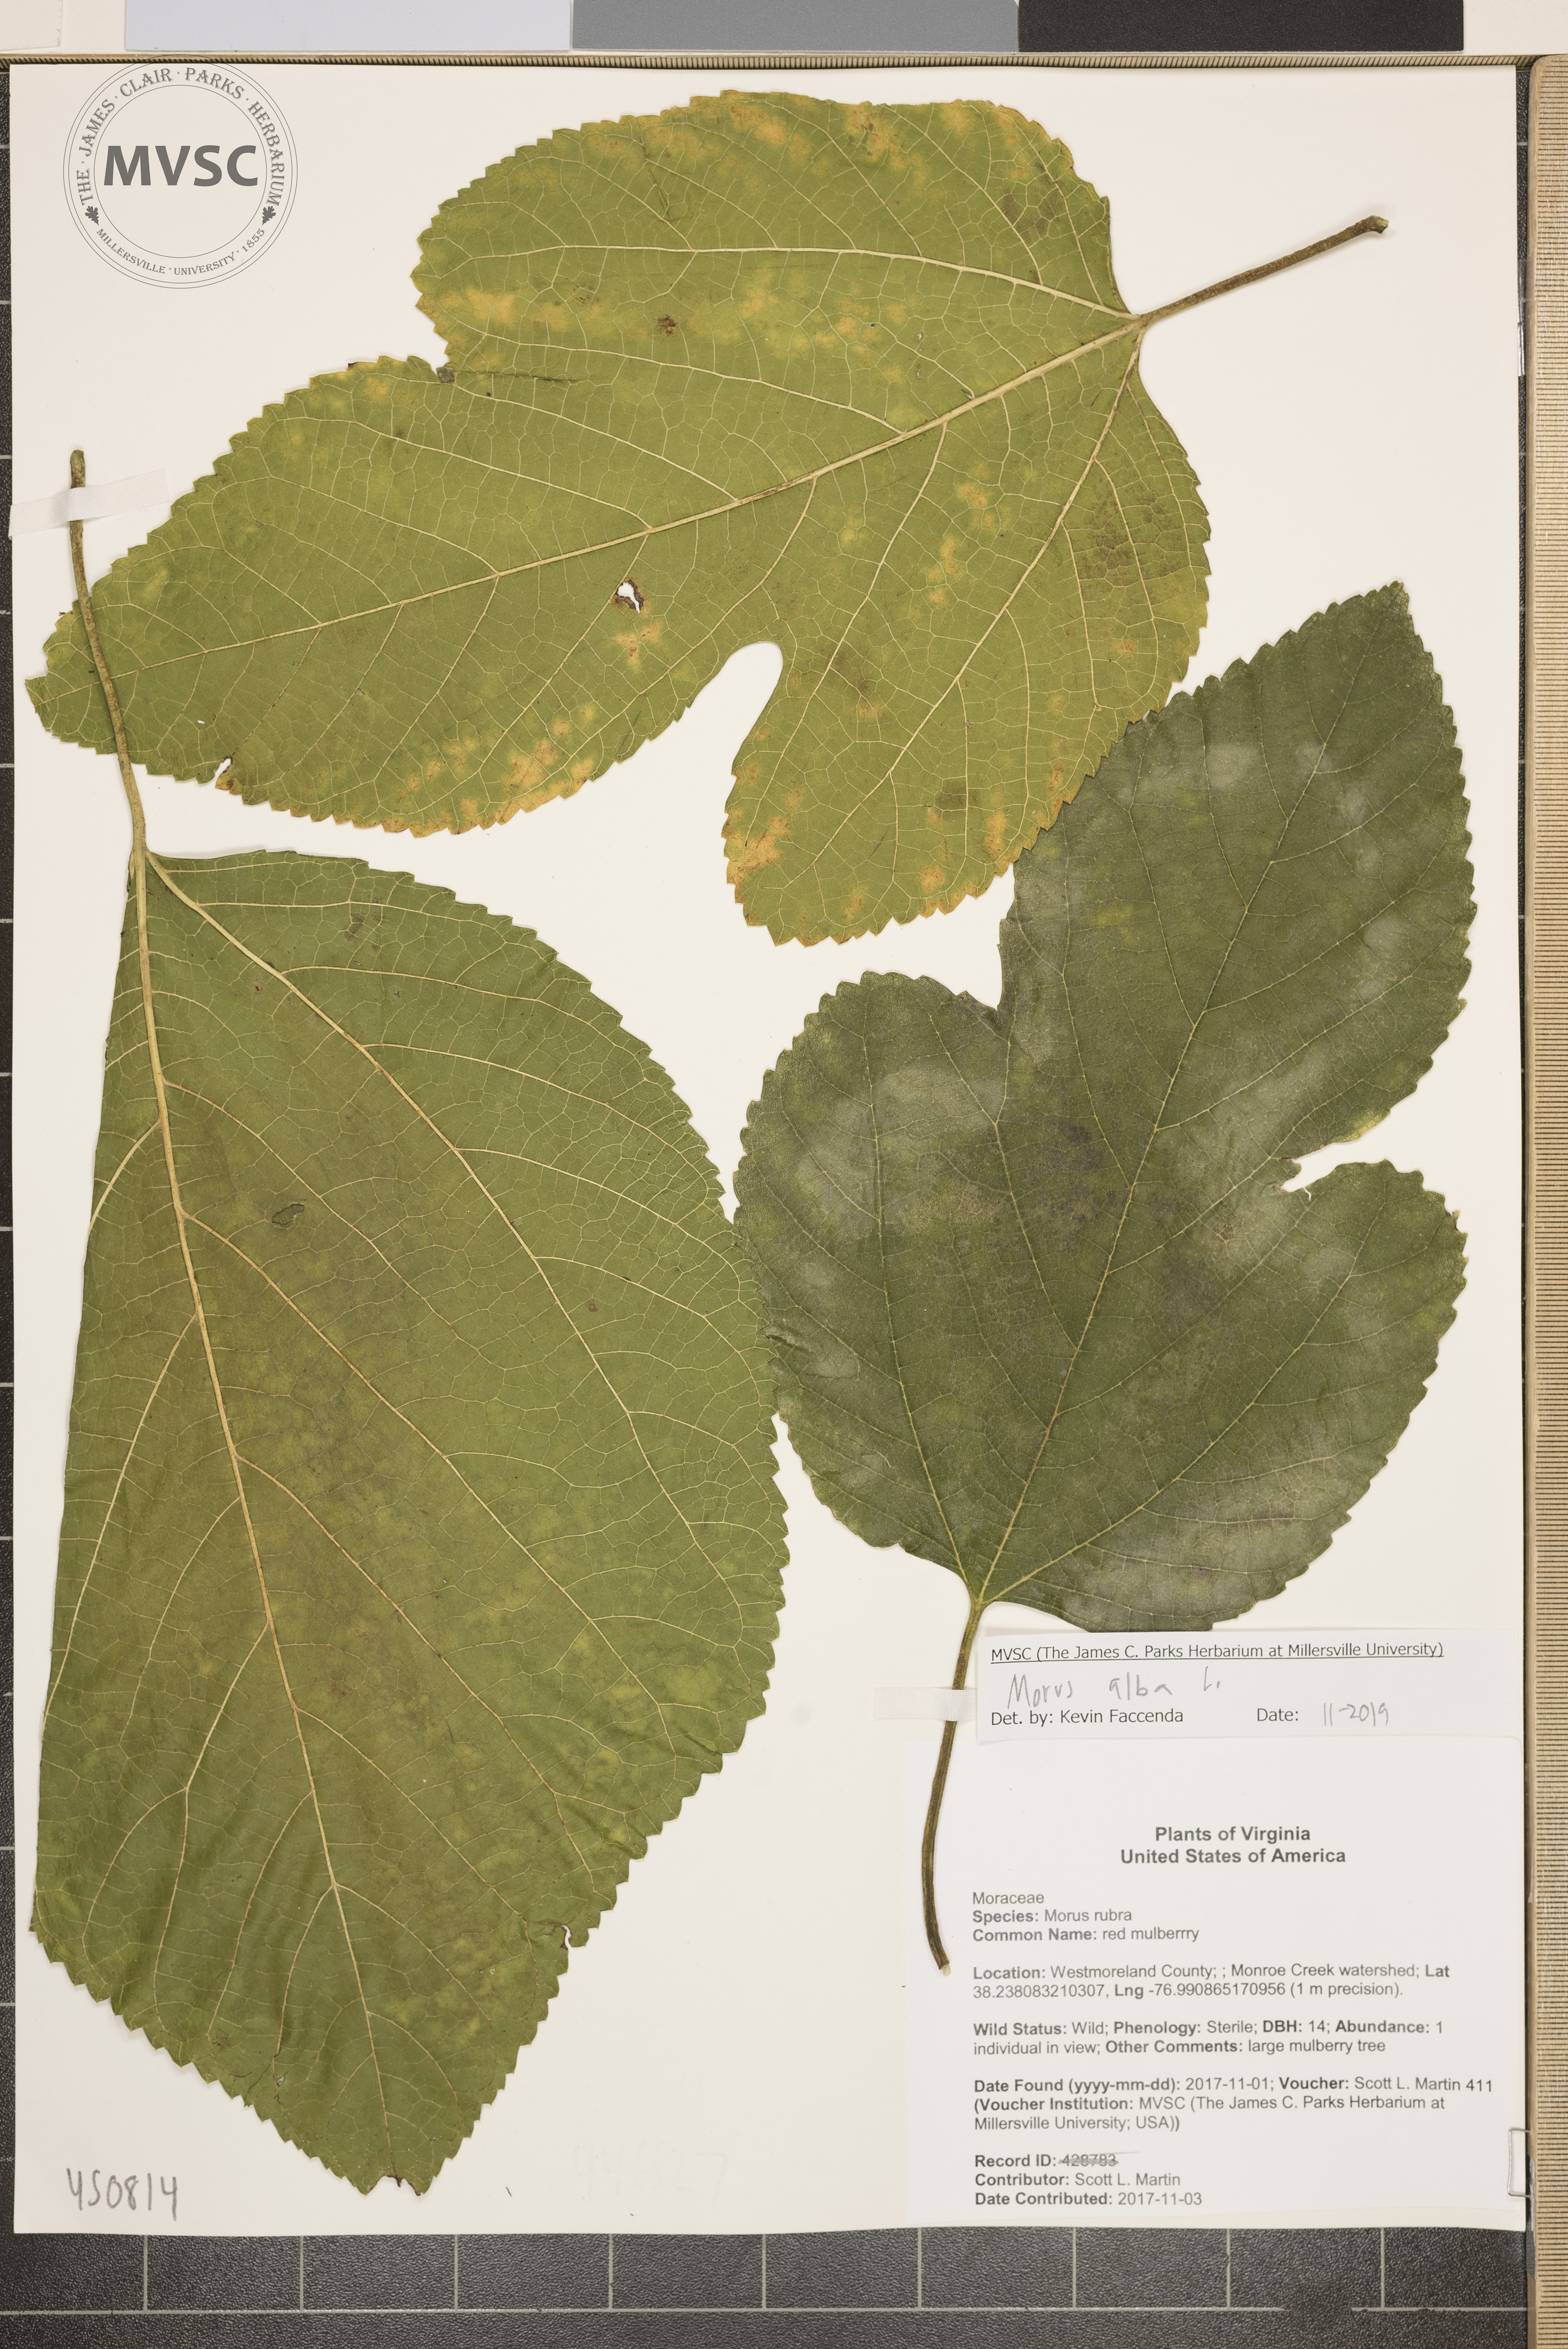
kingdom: Plantae
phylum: Tracheophyta
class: Magnoliopsida
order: Rosales
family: Moraceae
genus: Morus
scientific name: Morus alba
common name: White mulberry
